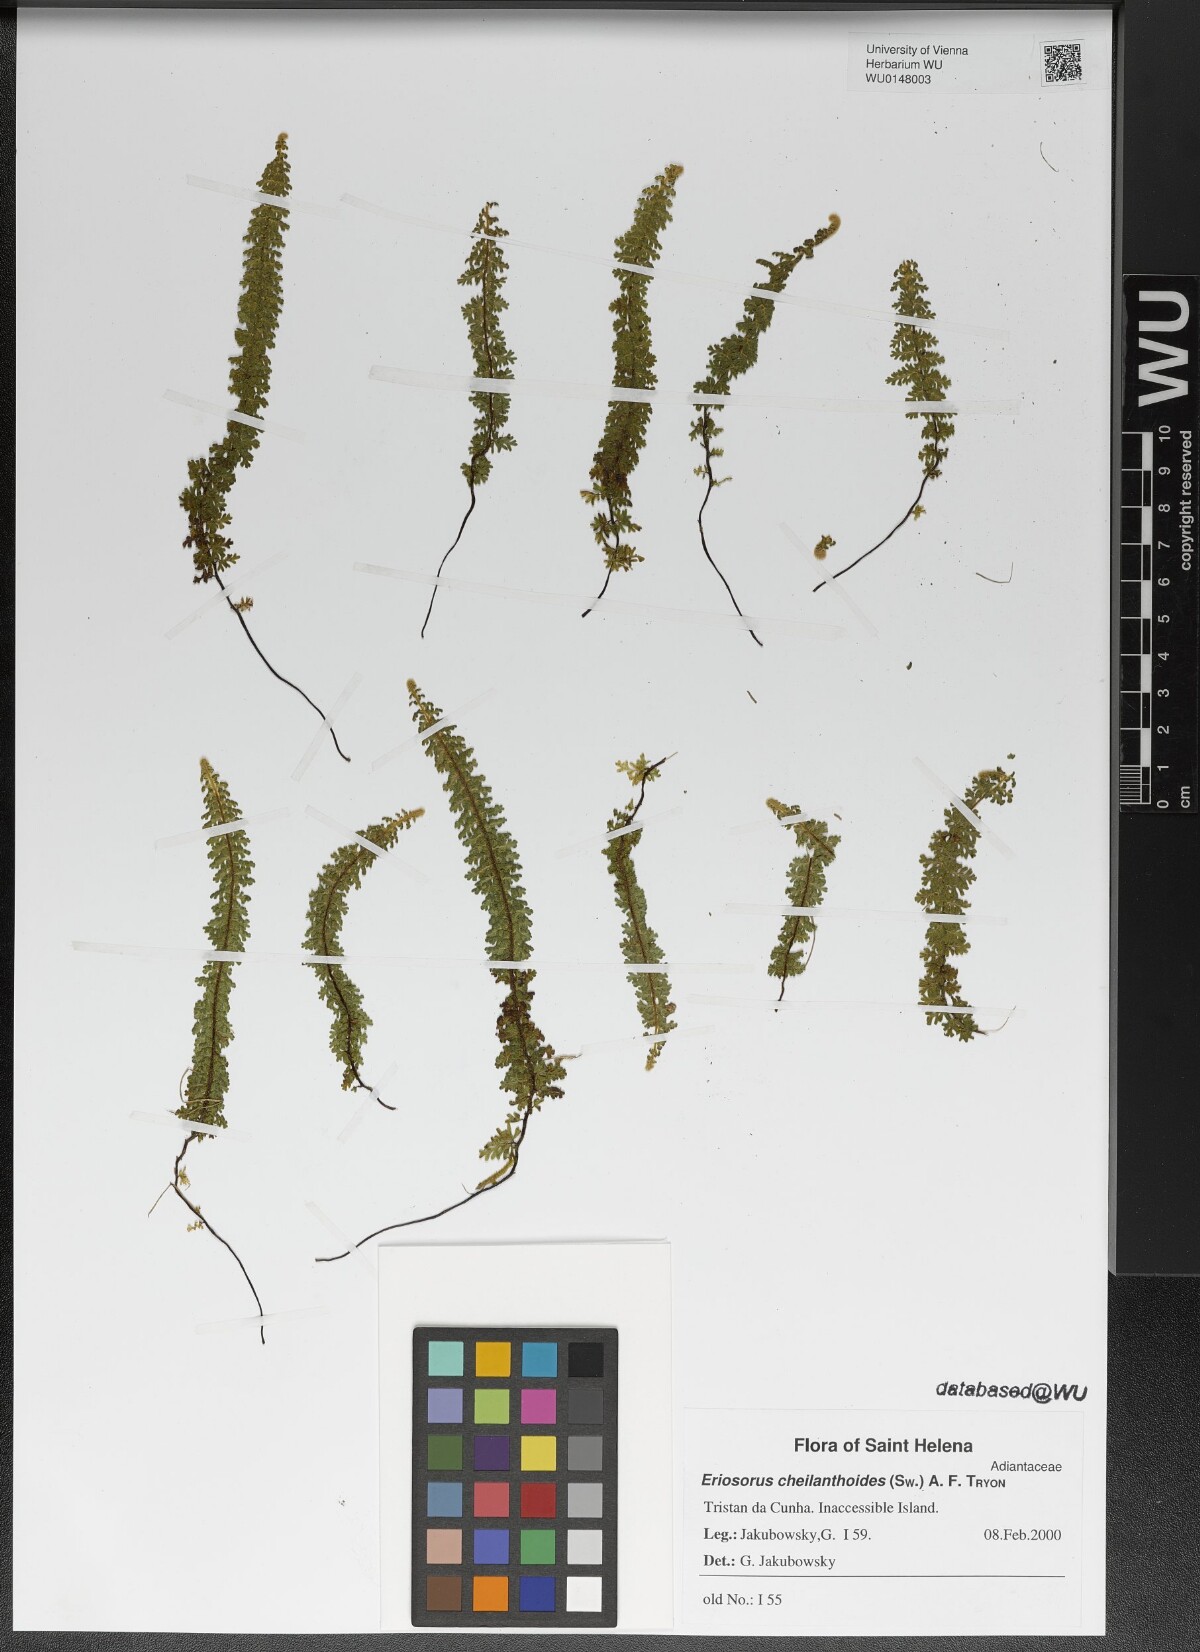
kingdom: Plantae
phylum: Tracheophyta
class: Polypodiopsida
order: Polypodiales
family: Pteridaceae
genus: Jamesonia
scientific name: Jamesonia cheilanthoides
